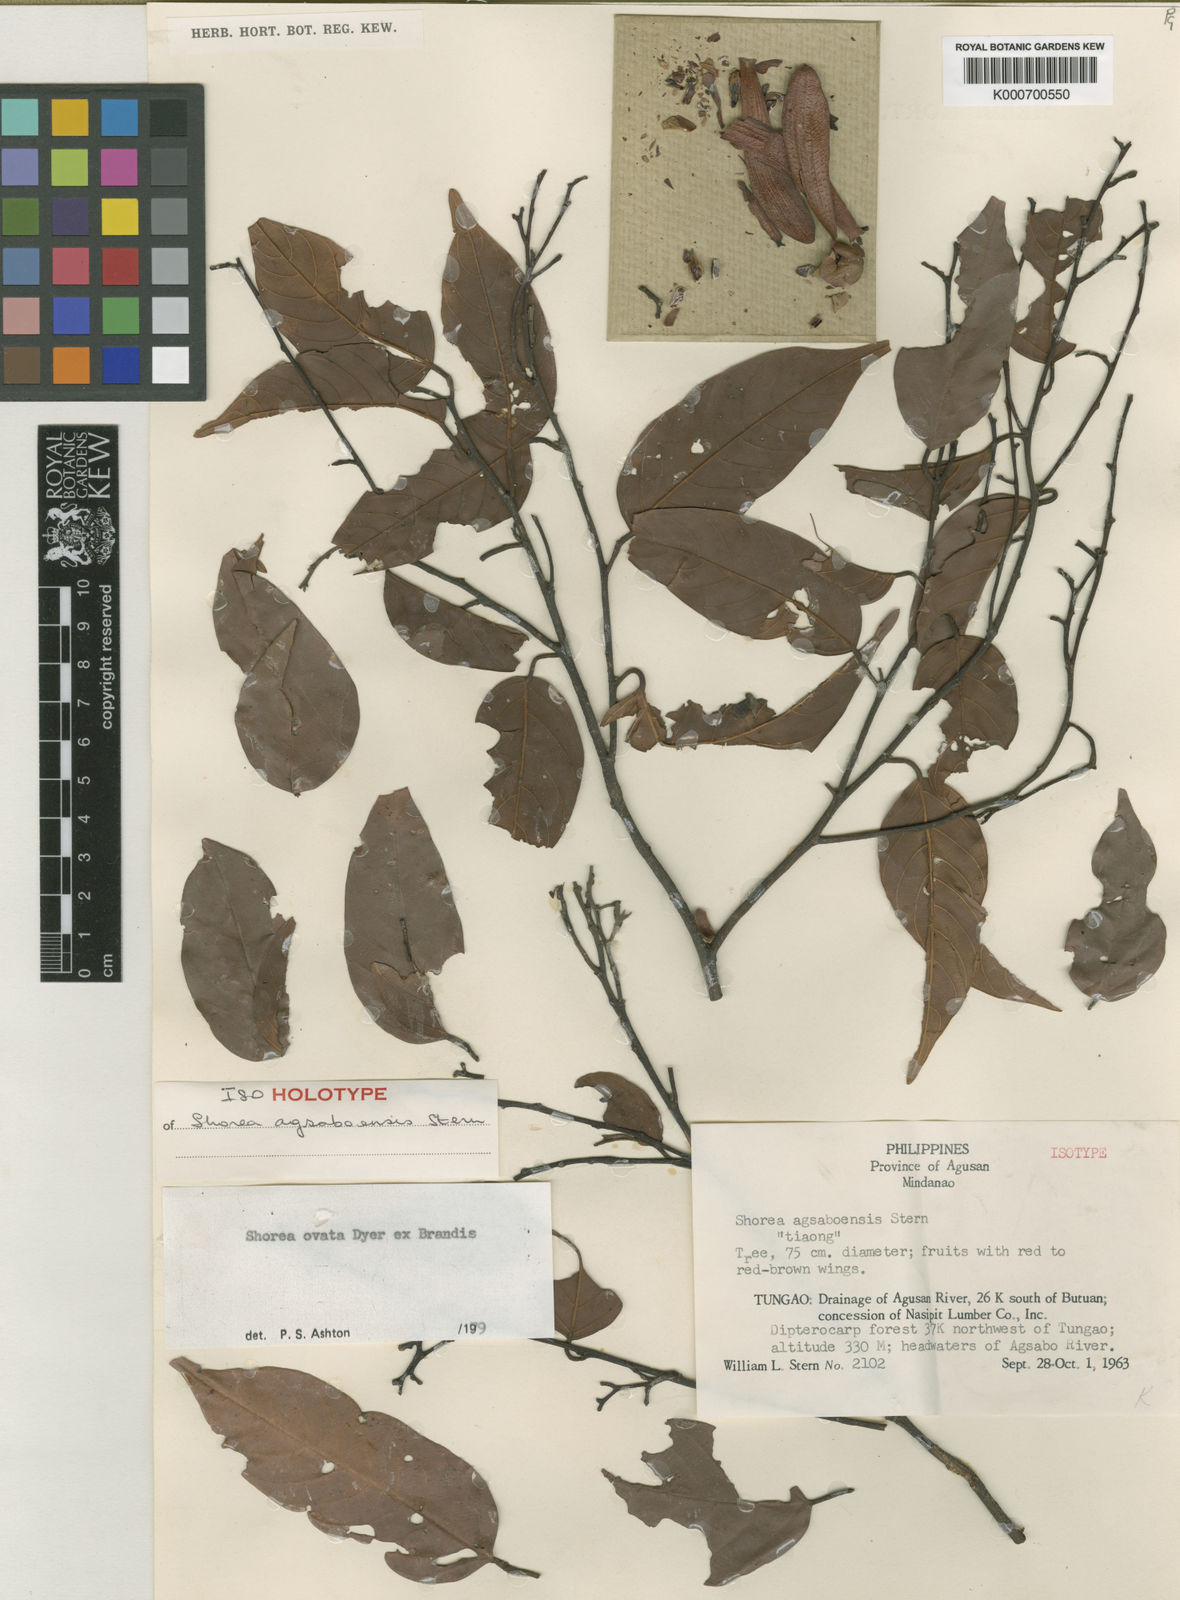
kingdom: Plantae
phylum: Tracheophyta
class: Magnoliopsida
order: Malvales
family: Dipterocarpaceae
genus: Shorea
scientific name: Shorea ovata
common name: Dark red meranti
